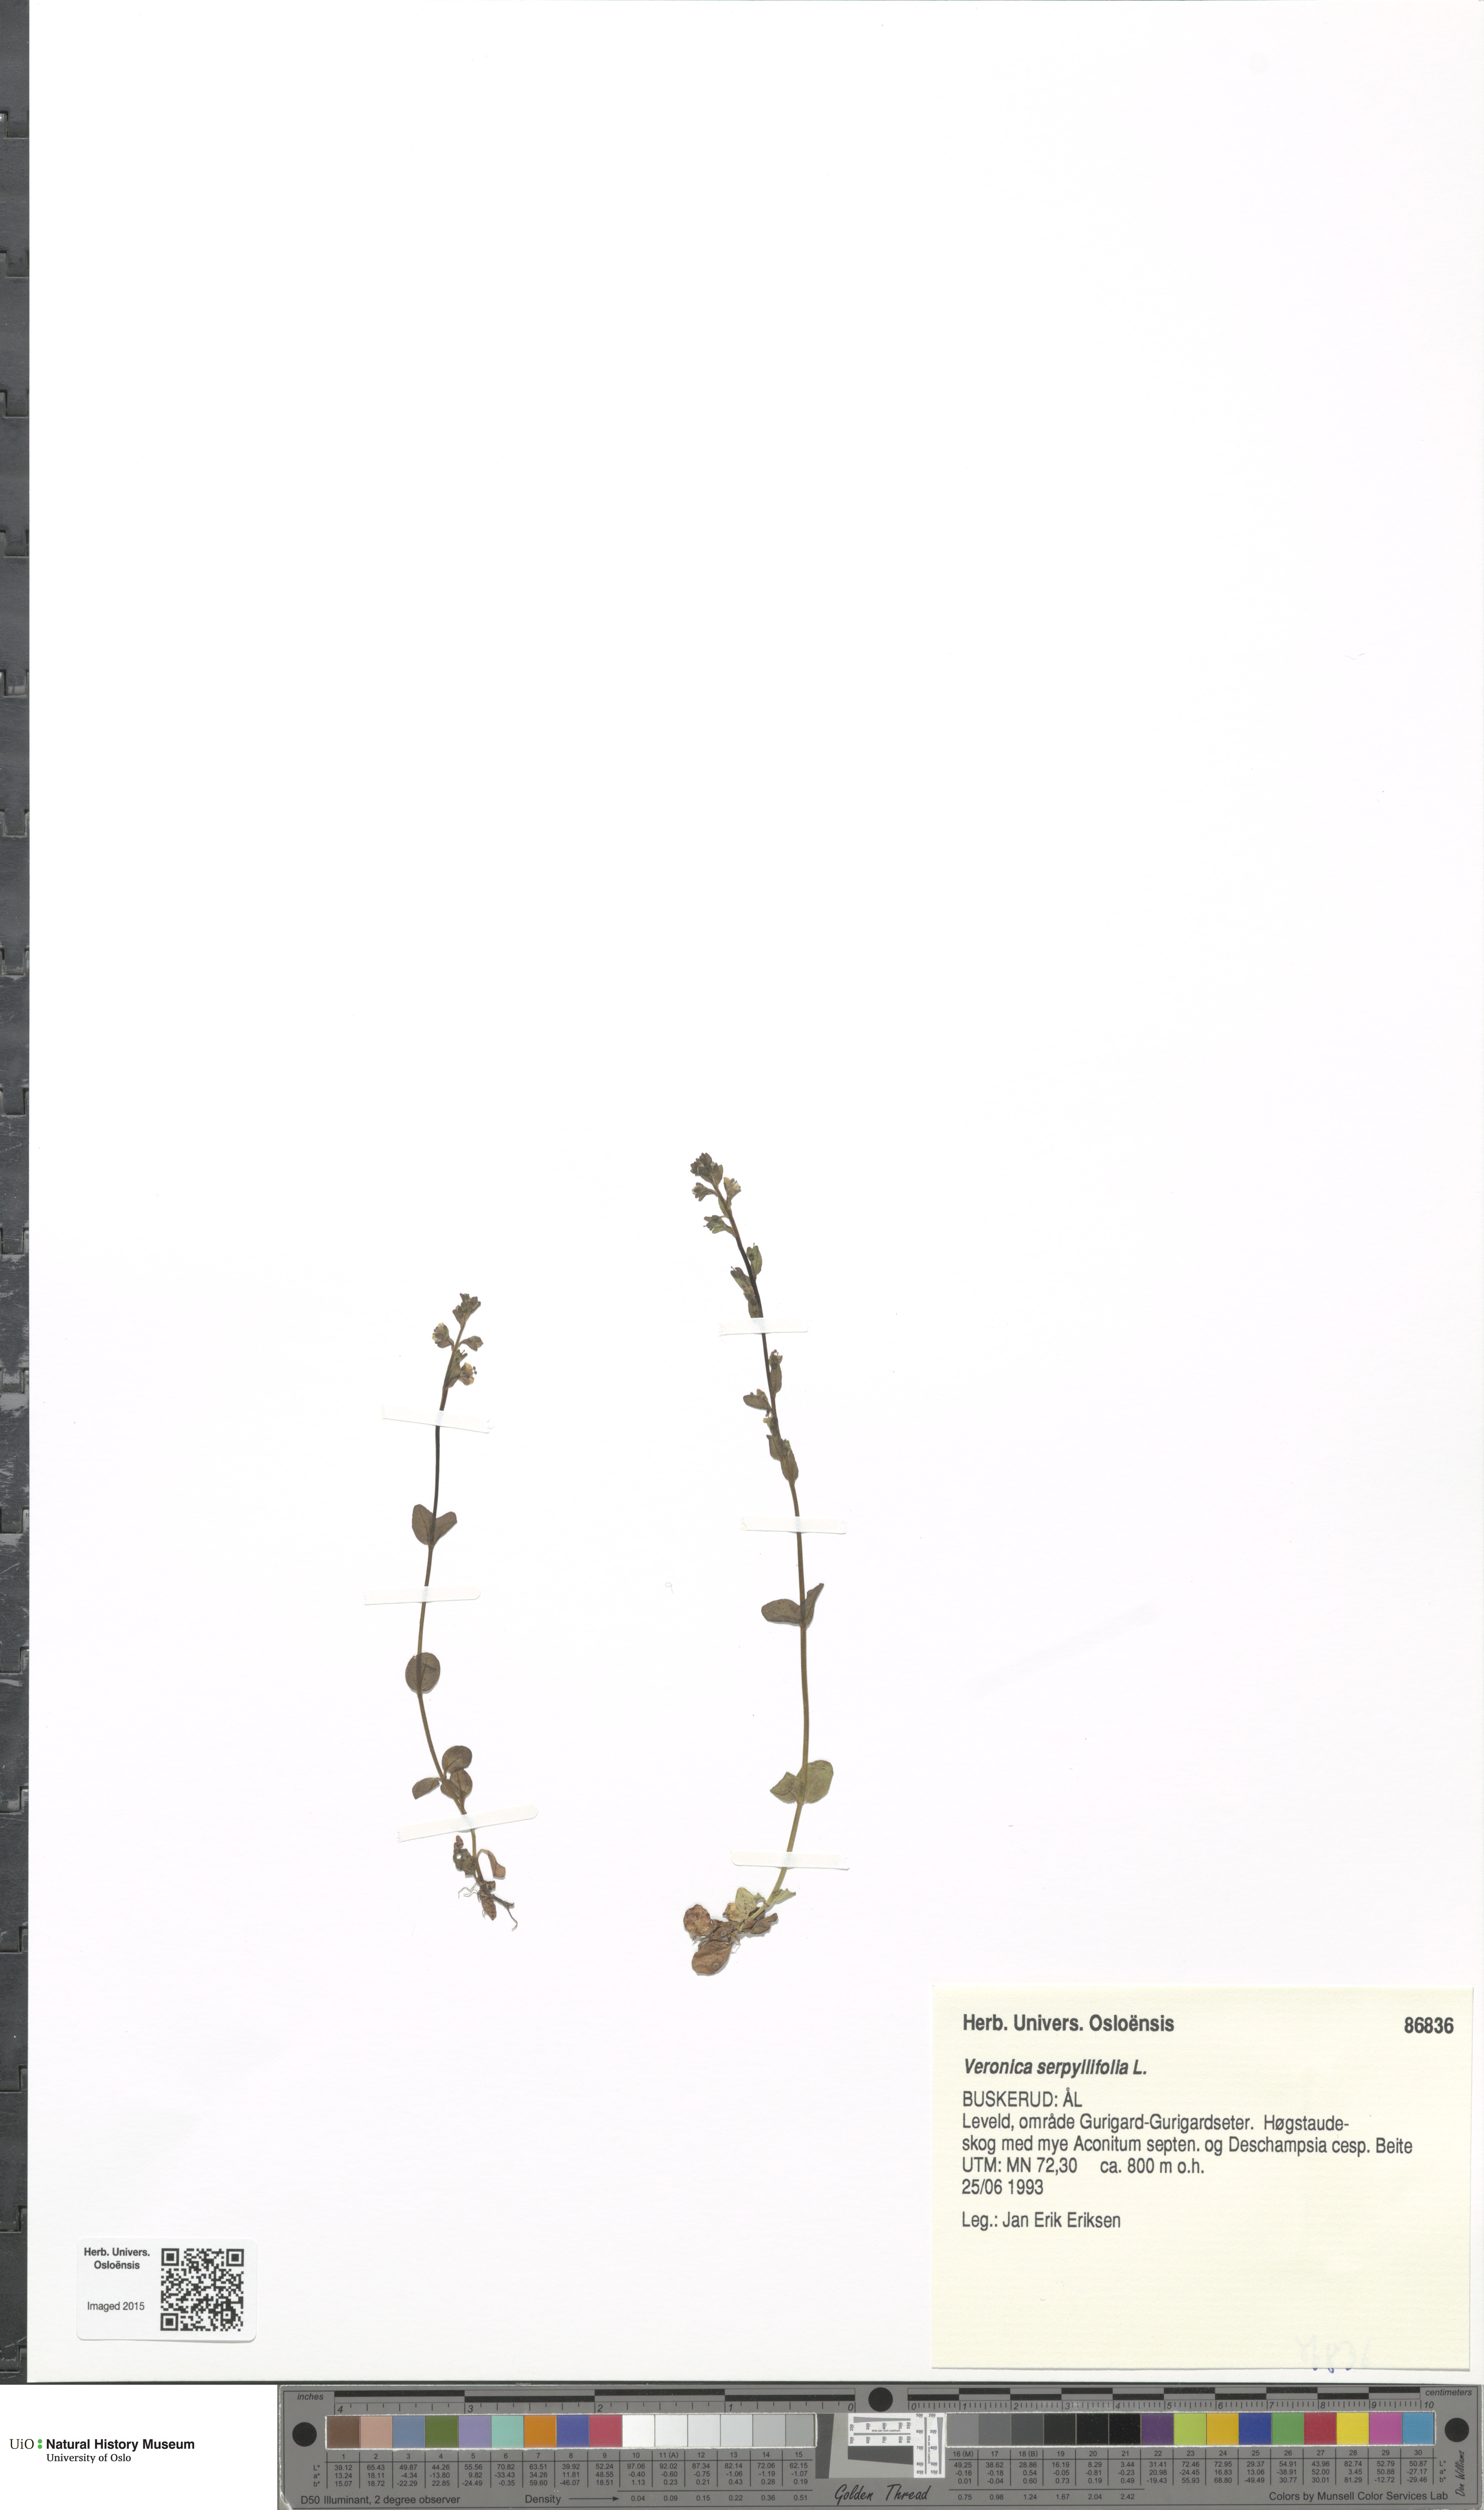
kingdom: Plantae
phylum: Tracheophyta
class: Magnoliopsida
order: Lamiales
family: Plantaginaceae
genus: Veronica
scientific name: Veronica serpyllifolia
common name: Thyme-leaved speedwell
